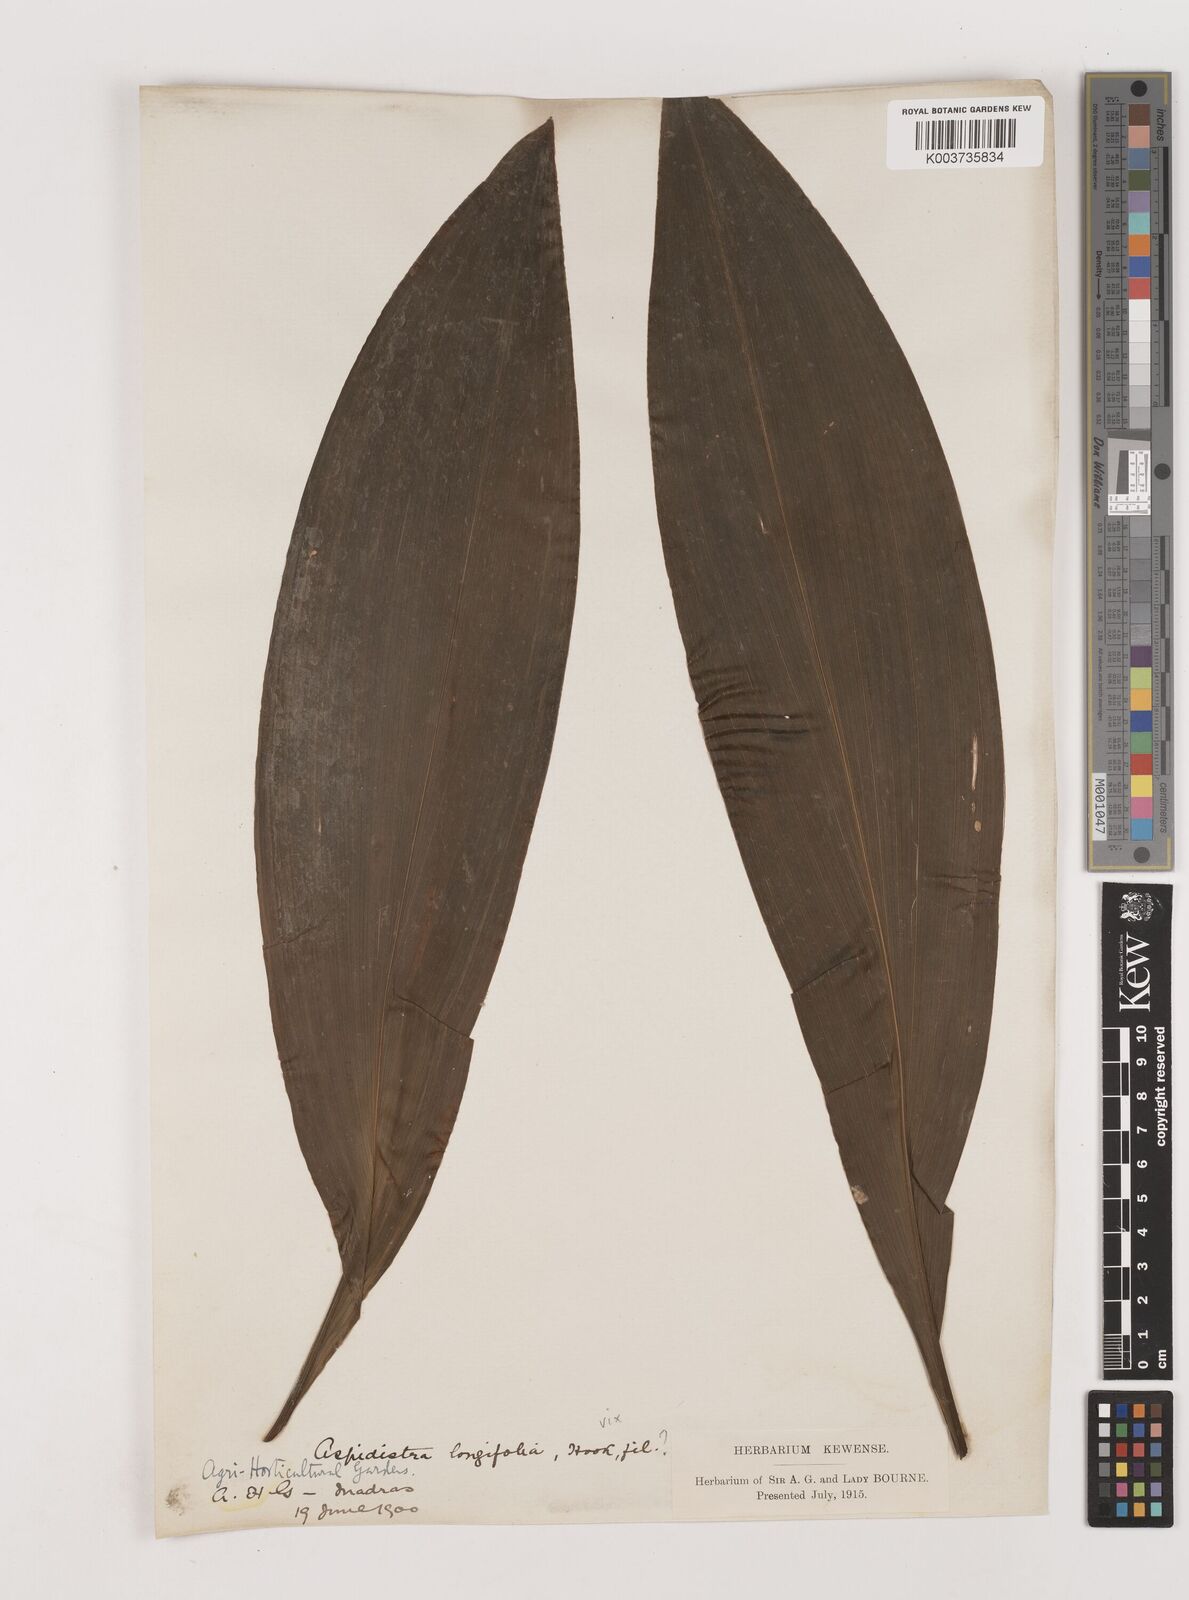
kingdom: Plantae
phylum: Tracheophyta
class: Liliopsida
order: Asparagales
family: Asparagaceae
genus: Aspidistra
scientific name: Aspidistra
